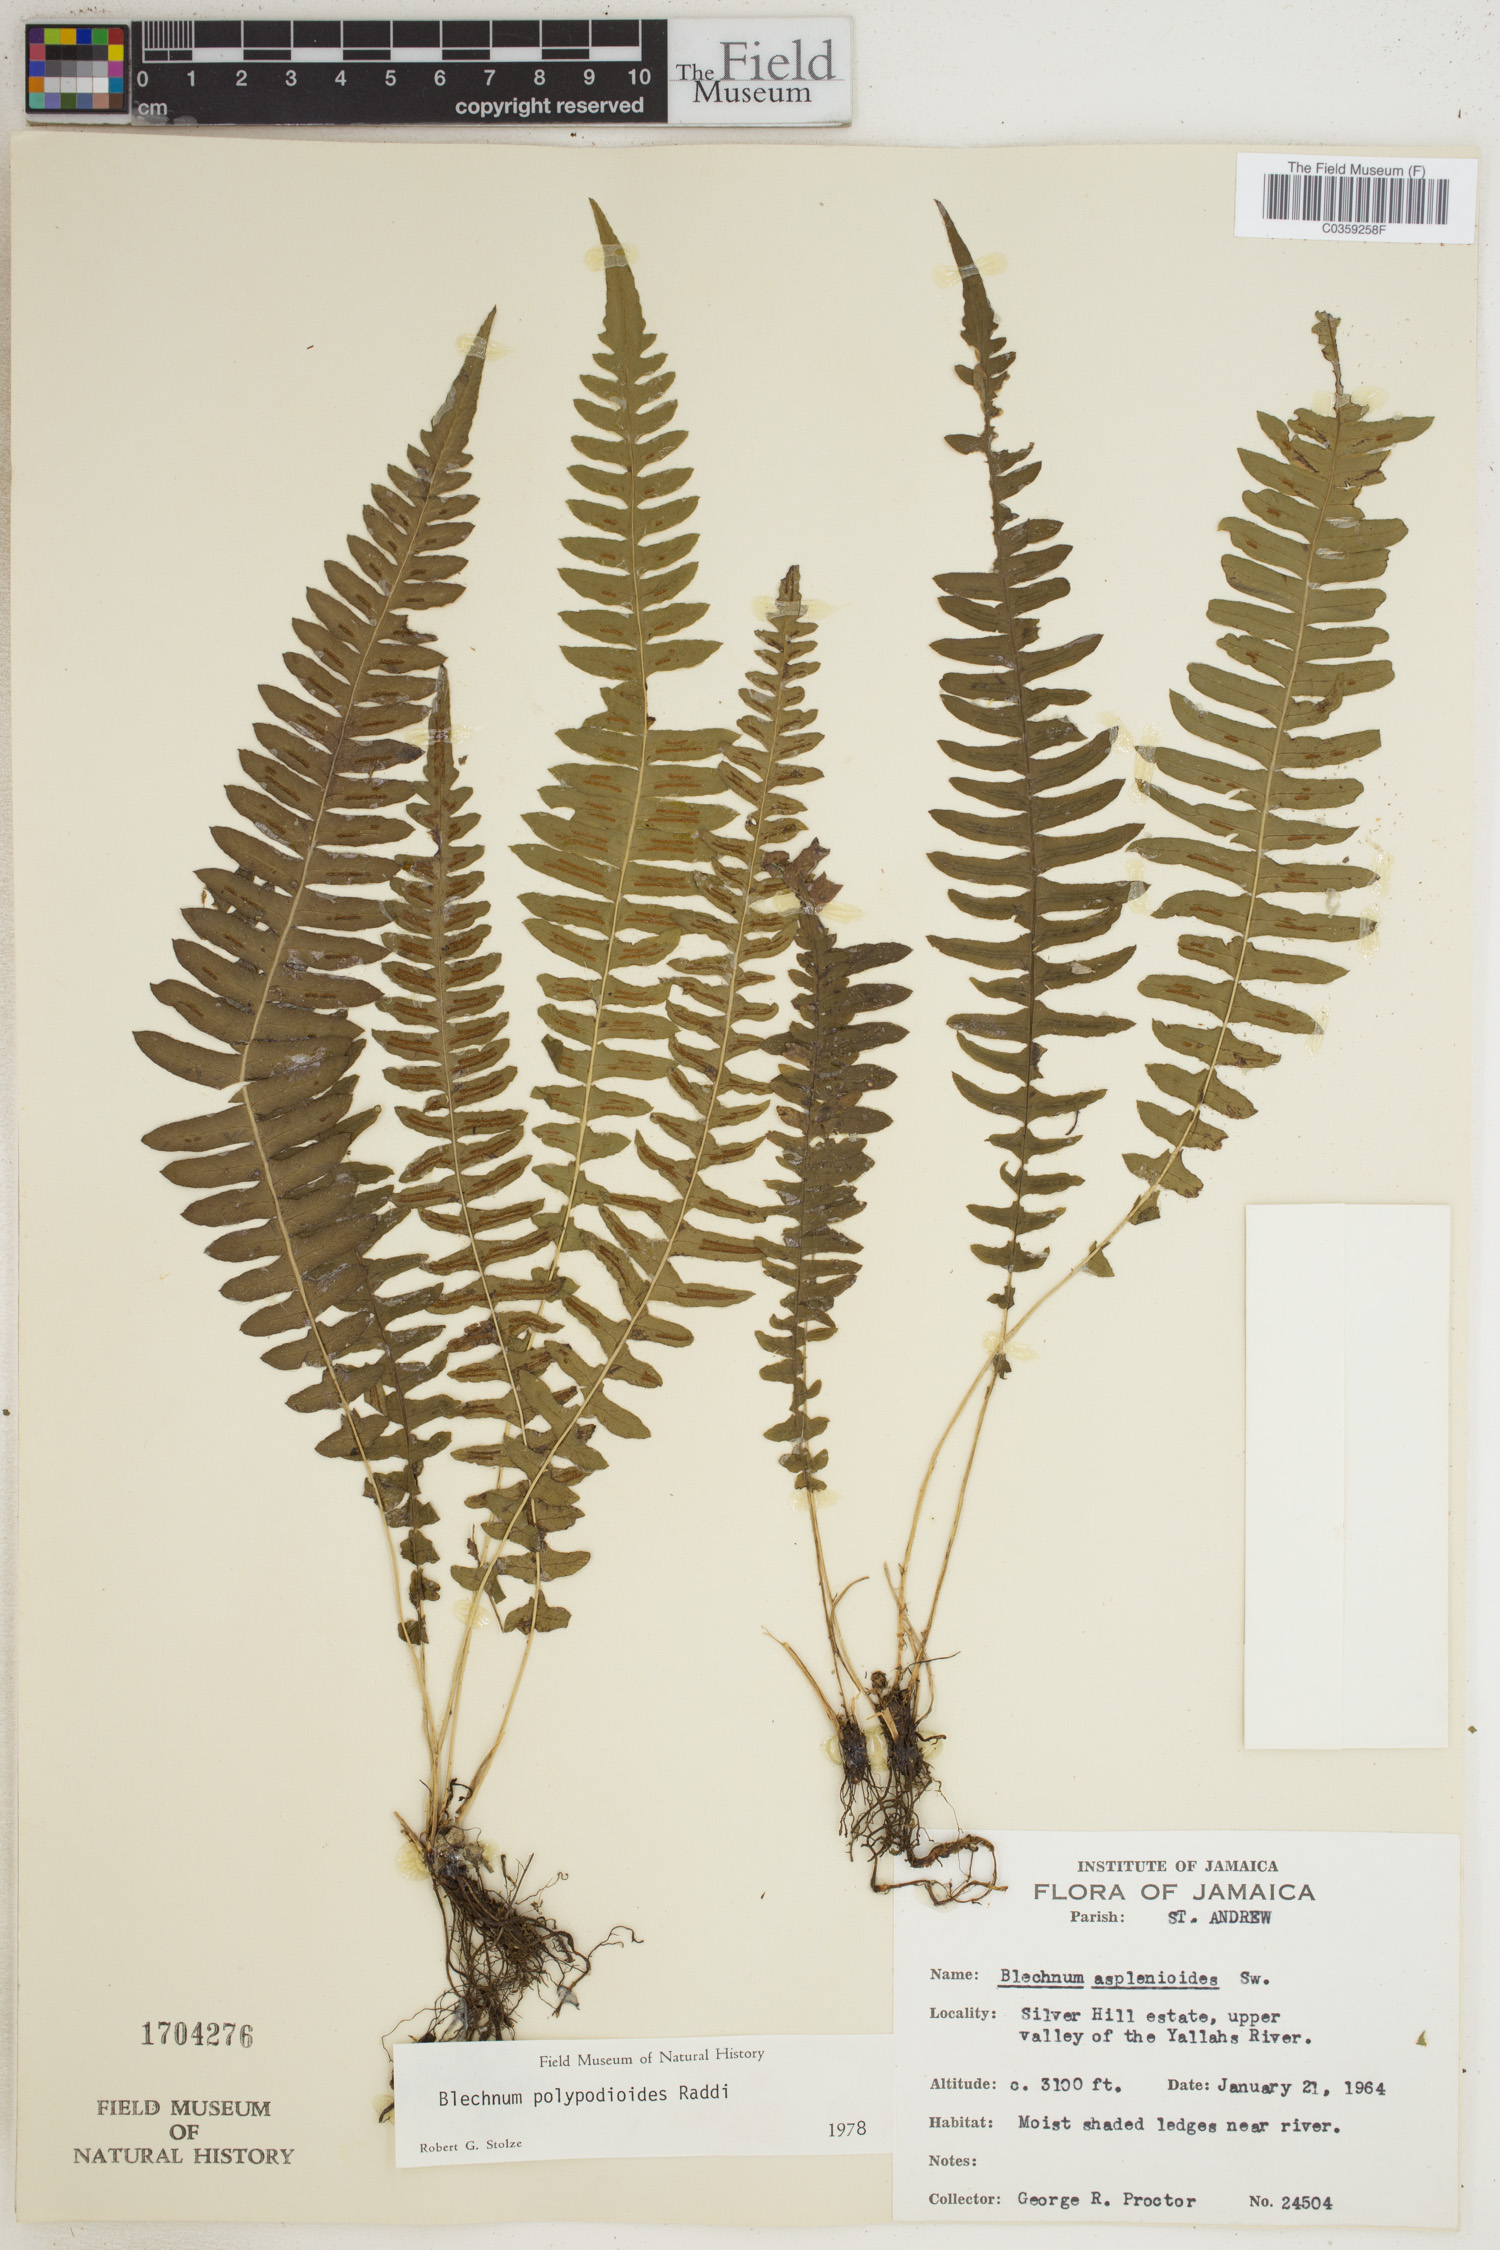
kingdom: Plantae
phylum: Tracheophyta
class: Polypodiopsida
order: Polypodiales
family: Blechnaceae
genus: Blechnum
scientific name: Blechnum polypodioides
